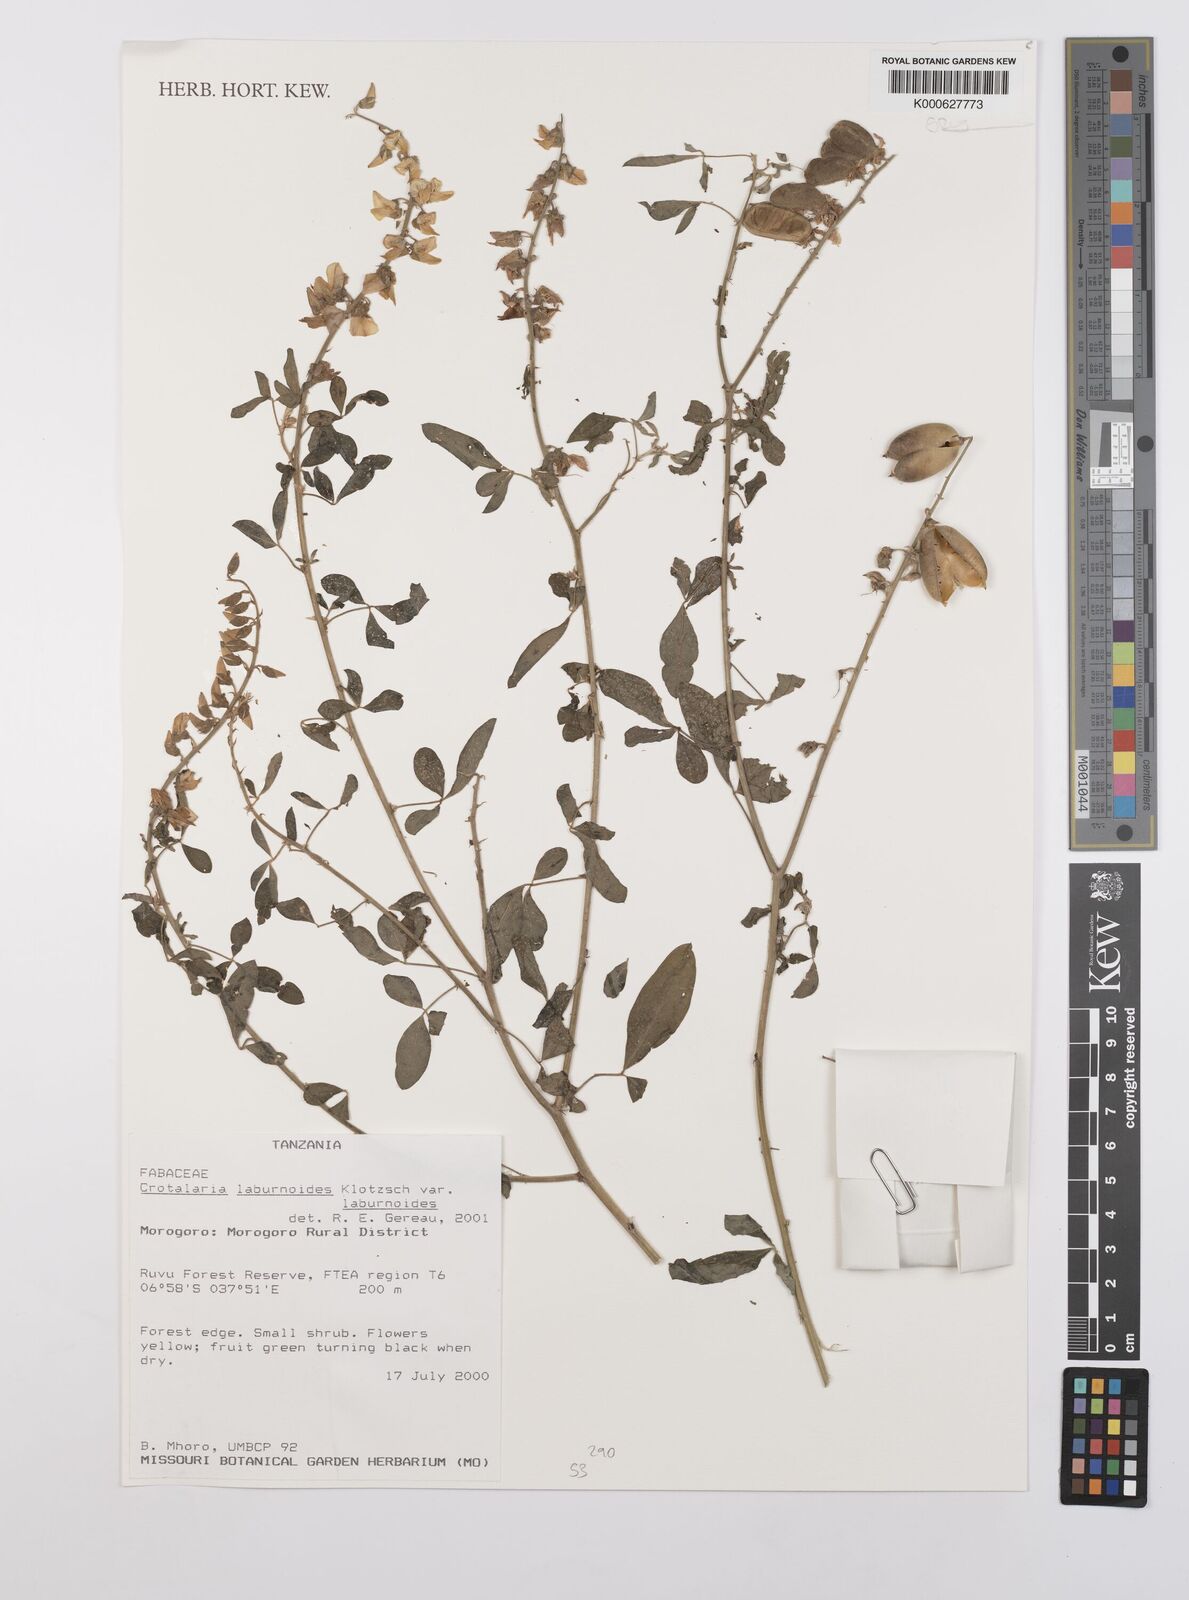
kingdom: Plantae
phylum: Tracheophyta
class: Magnoliopsida
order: Fabales
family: Fabaceae
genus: Crotalaria
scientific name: Crotalaria
